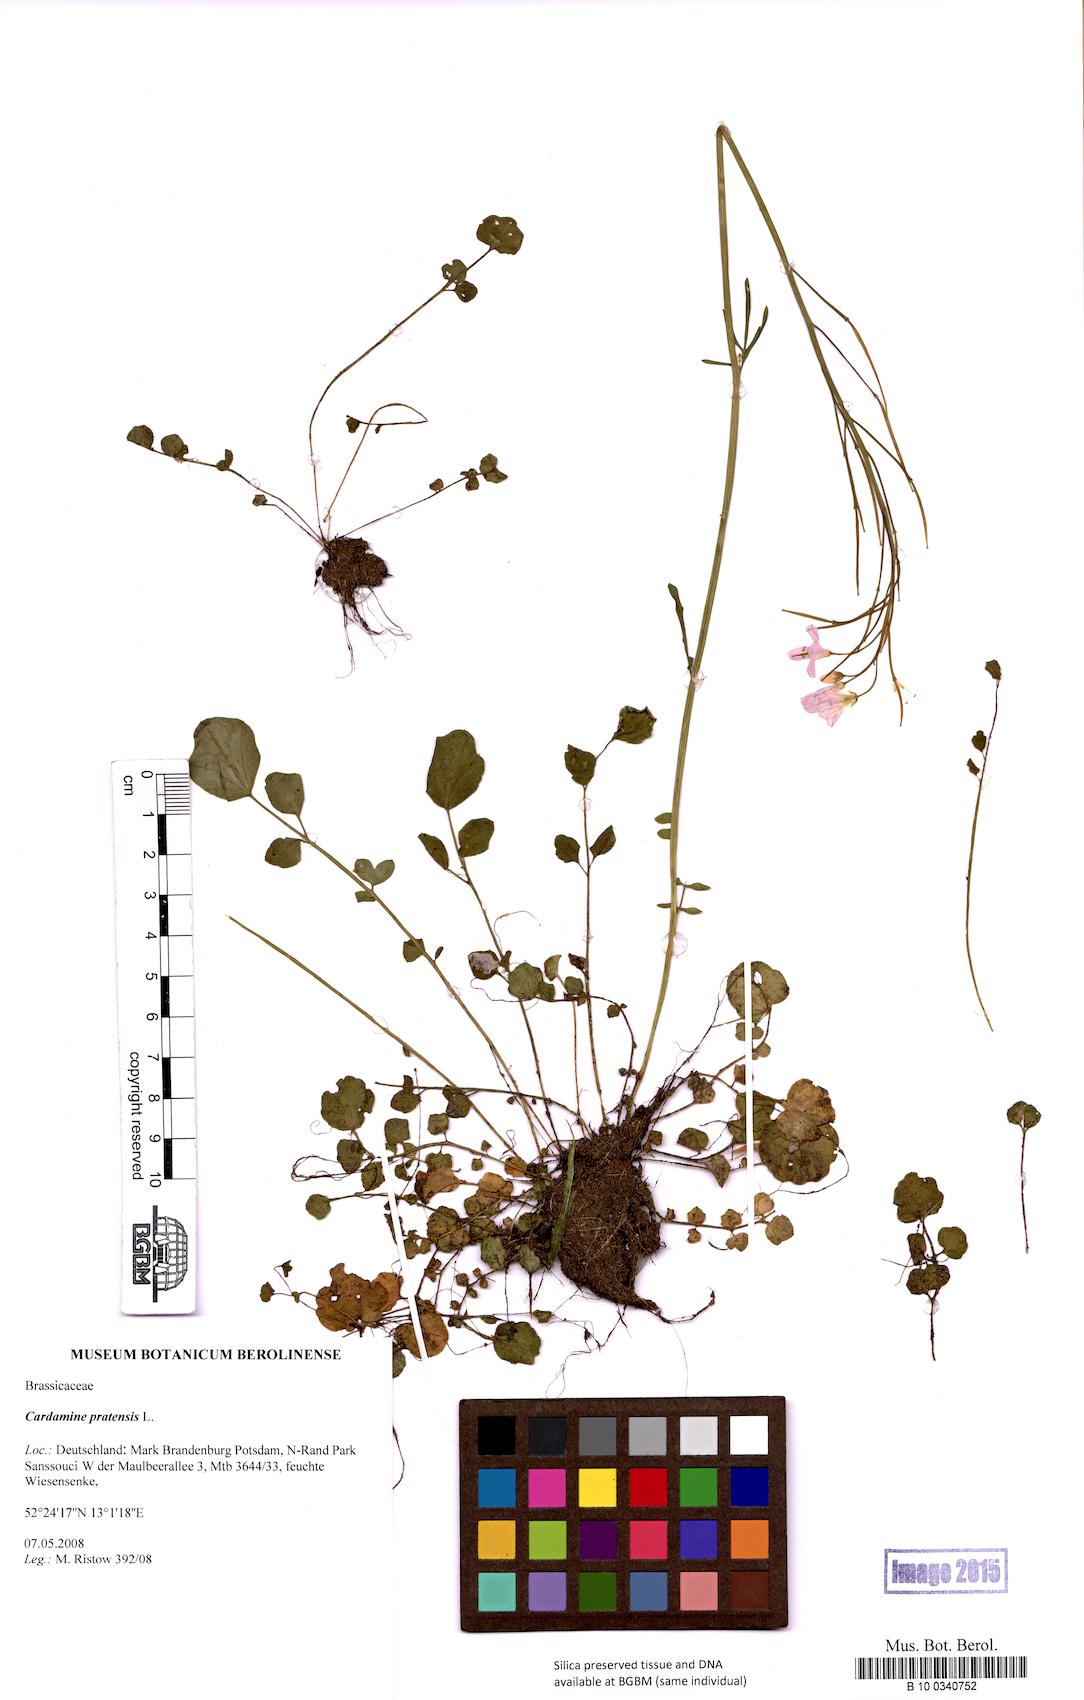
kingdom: Plantae
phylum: Tracheophyta
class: Magnoliopsida
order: Brassicales
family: Brassicaceae
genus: Cardamine
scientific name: Cardamine pratensis
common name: Cuckoo flower
